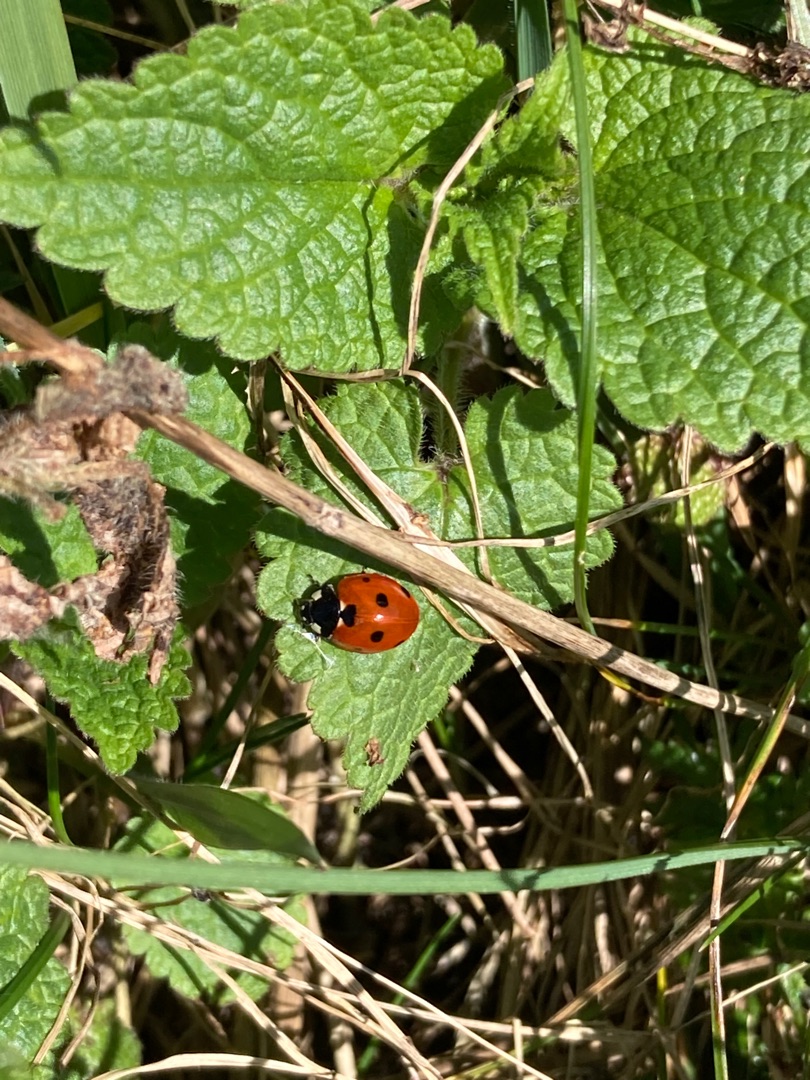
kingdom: Animalia
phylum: Arthropoda
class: Insecta
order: Coleoptera
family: Coccinellidae
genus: Coccinella
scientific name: Coccinella septempunctata
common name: Syvplettet mariehøne
